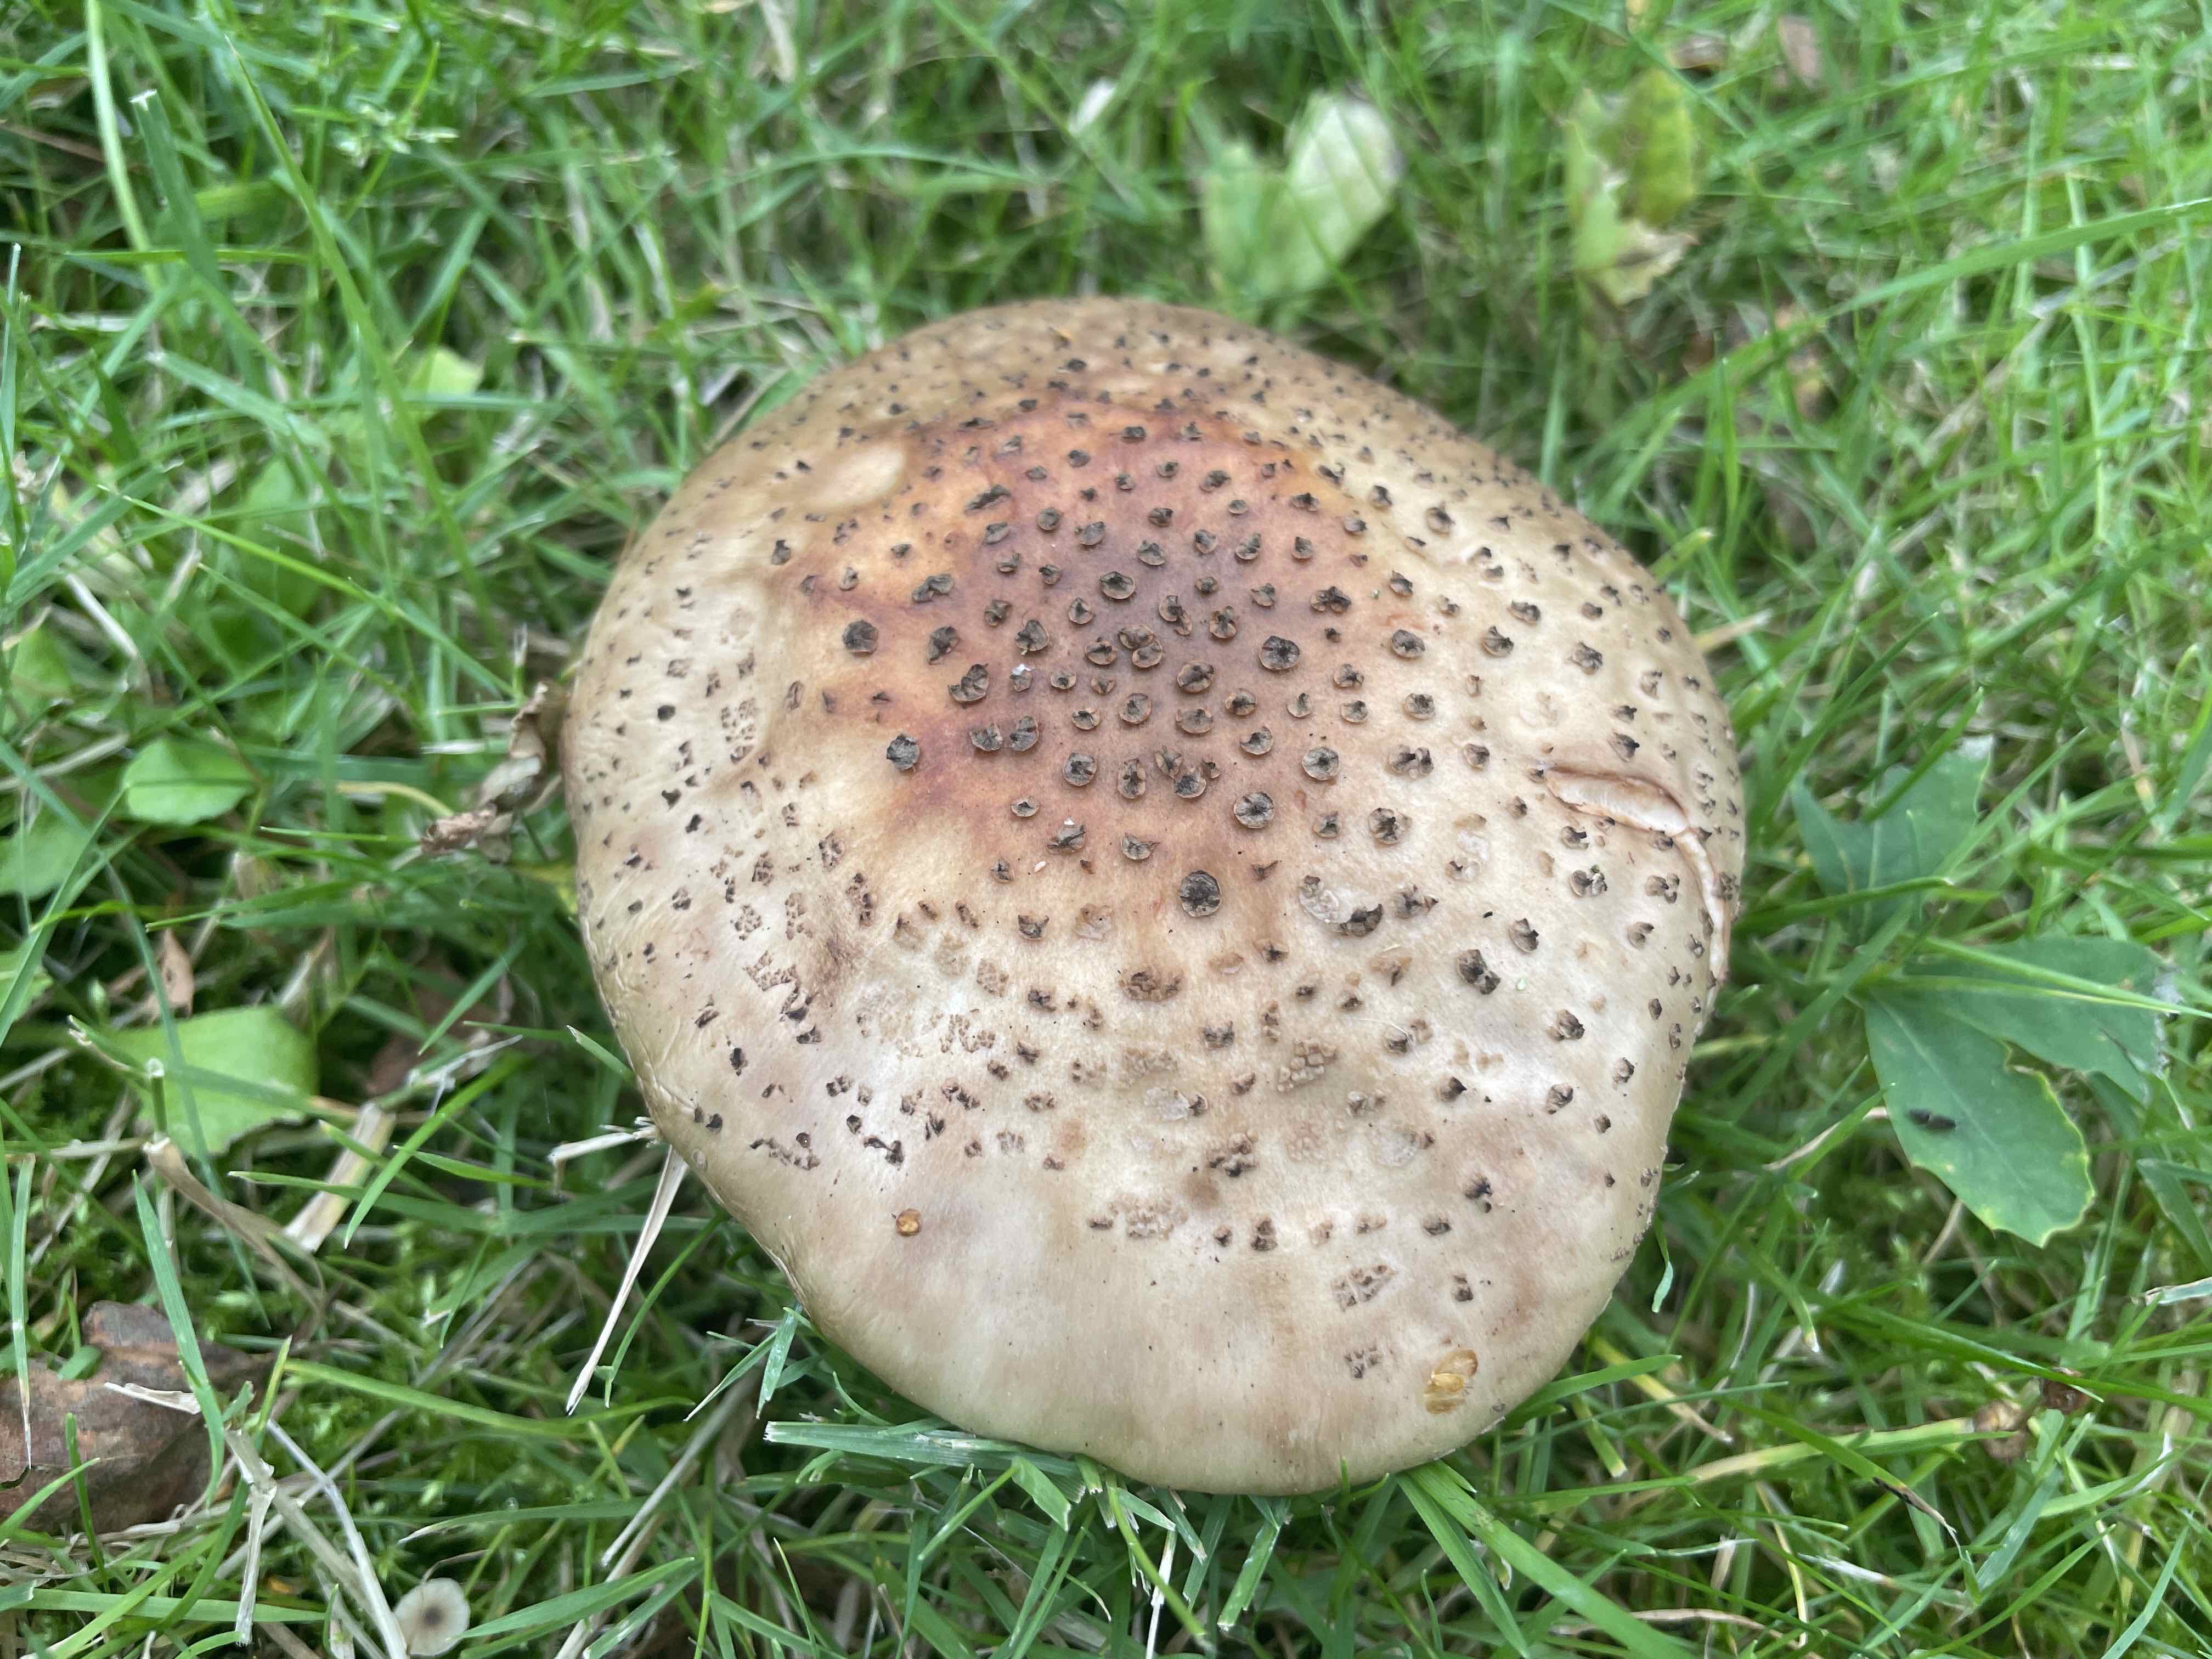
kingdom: Fungi
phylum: Basidiomycota
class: Agaricomycetes
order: Agaricales
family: Amanitaceae
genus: Amanita
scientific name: Amanita rubescens
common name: rødmende fluesvamp
